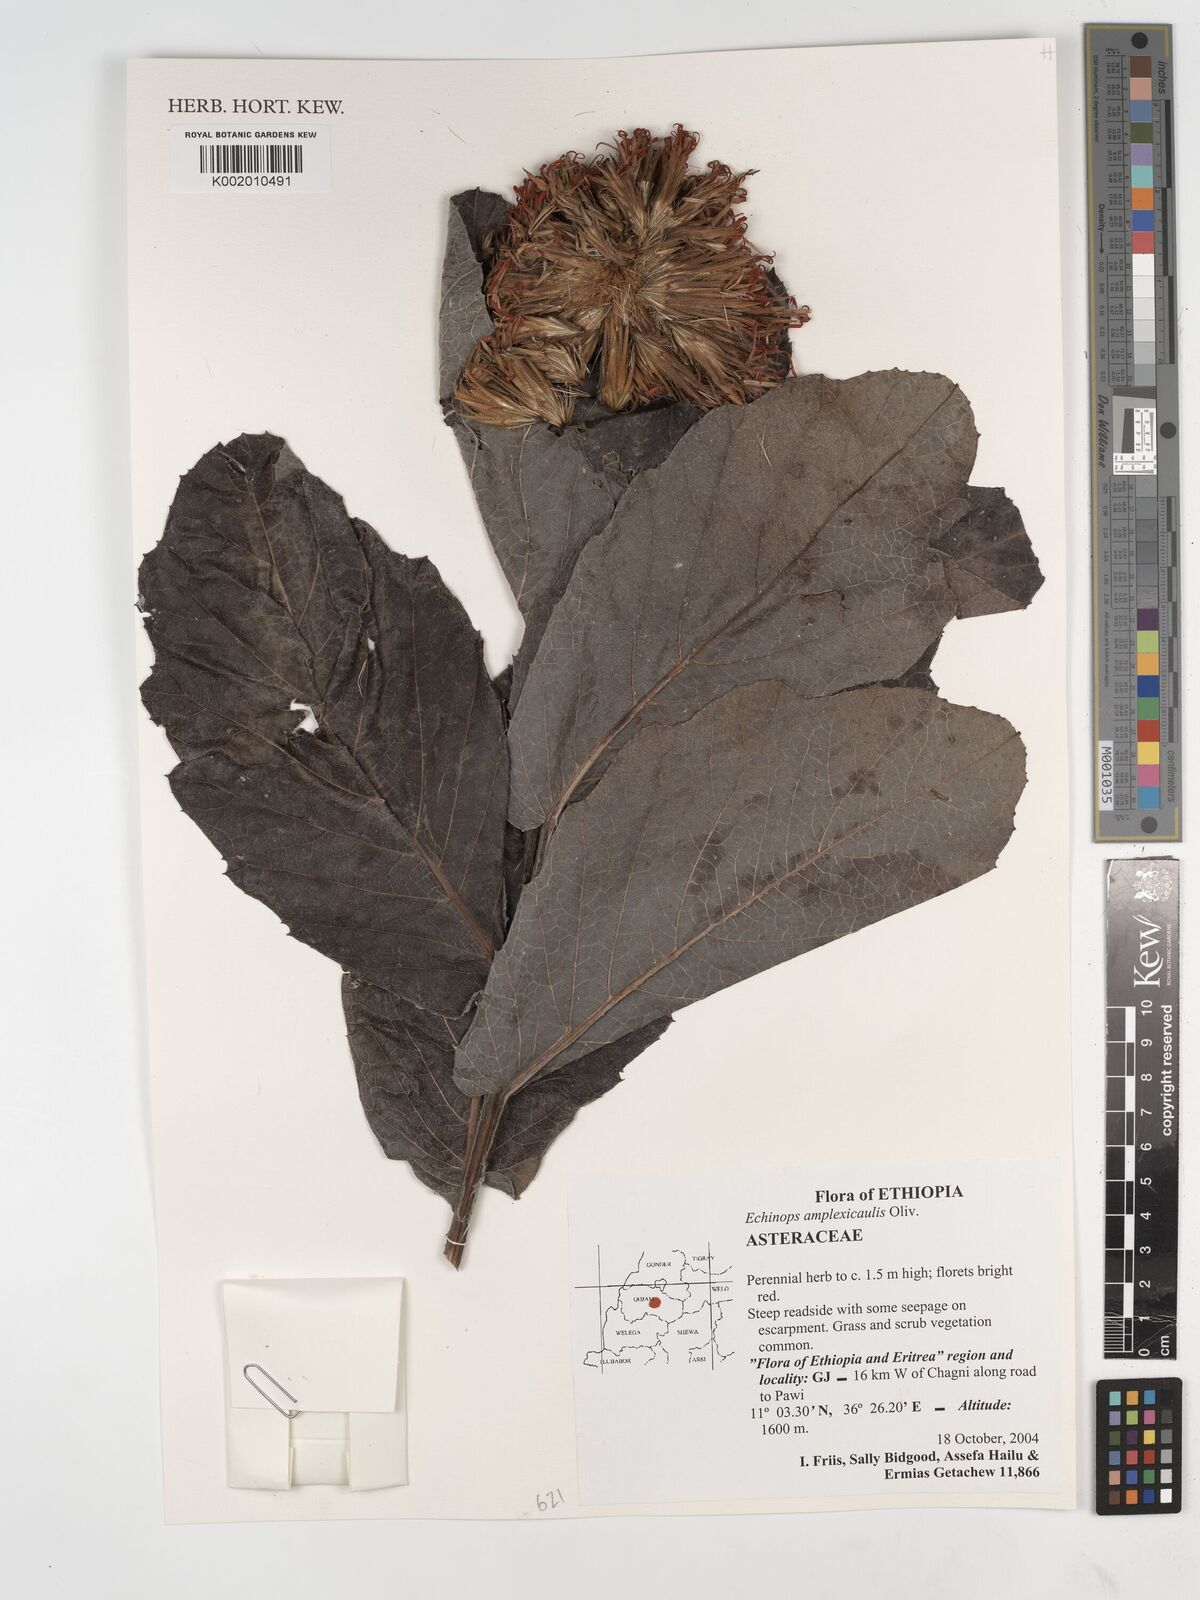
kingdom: Plantae
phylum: Tracheophyta
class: Magnoliopsida
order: Asterales
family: Asteraceae
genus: Echinops
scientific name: Echinops amplexicaulis
